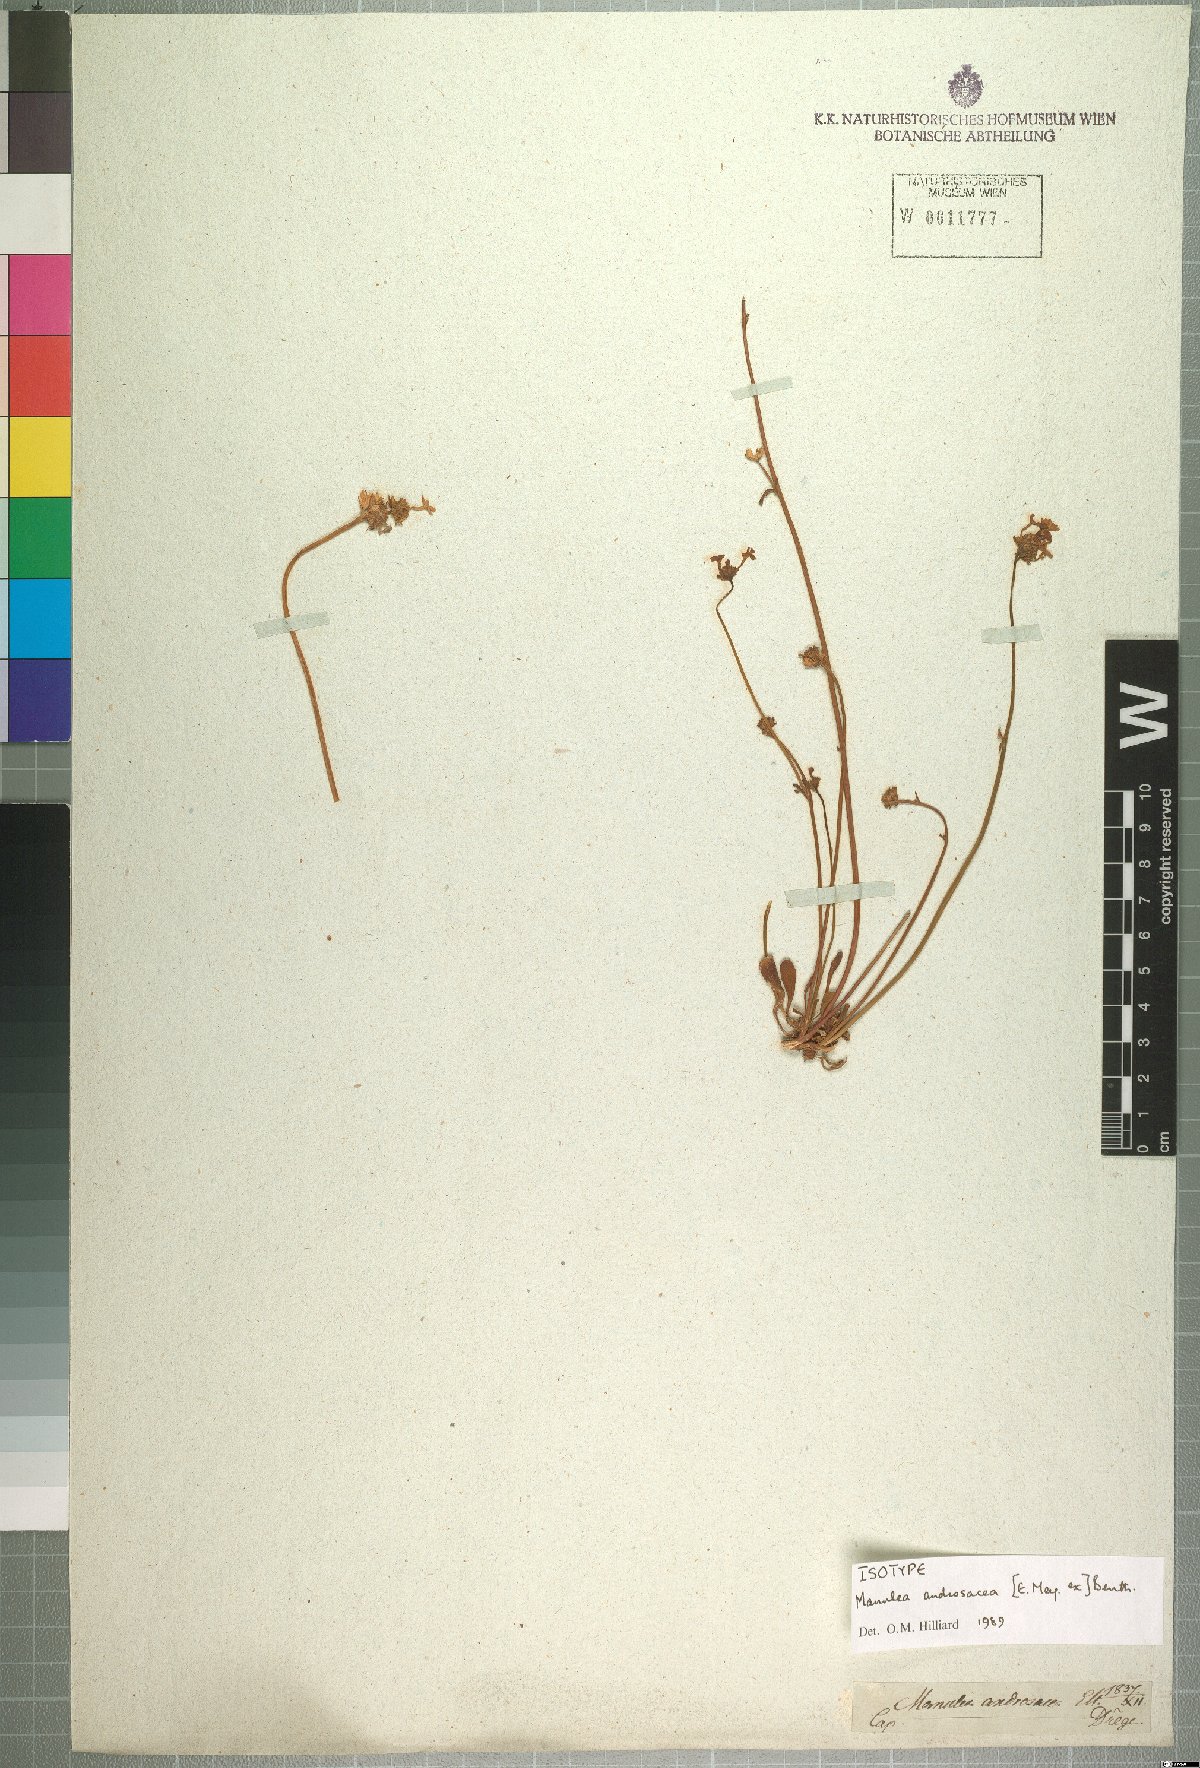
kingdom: Plantae
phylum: Tracheophyta
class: Magnoliopsida
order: Lamiales
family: Scrophulariaceae
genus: Manulea
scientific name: Manulea androsacea
